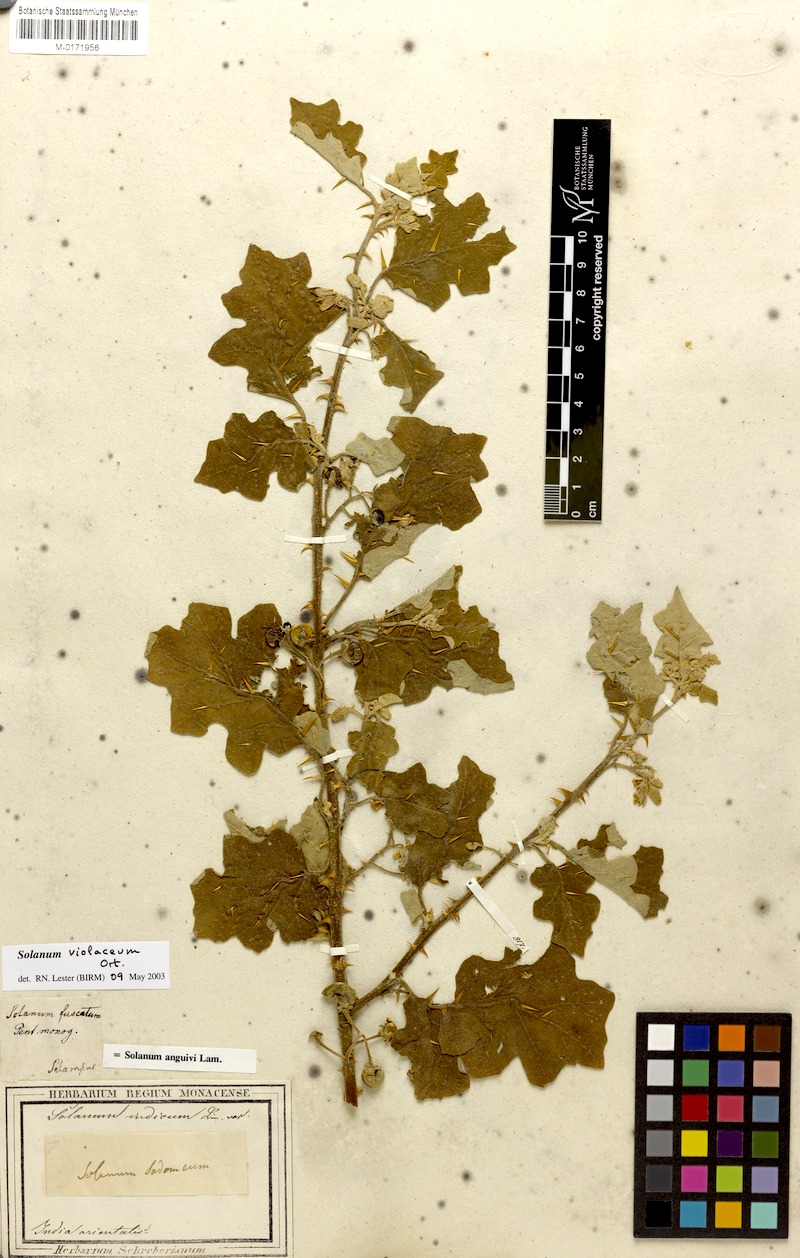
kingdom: Plantae
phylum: Tracheophyta
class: Magnoliopsida
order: Solanales
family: Solanaceae
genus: Solanum
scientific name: Solanum violaceum
